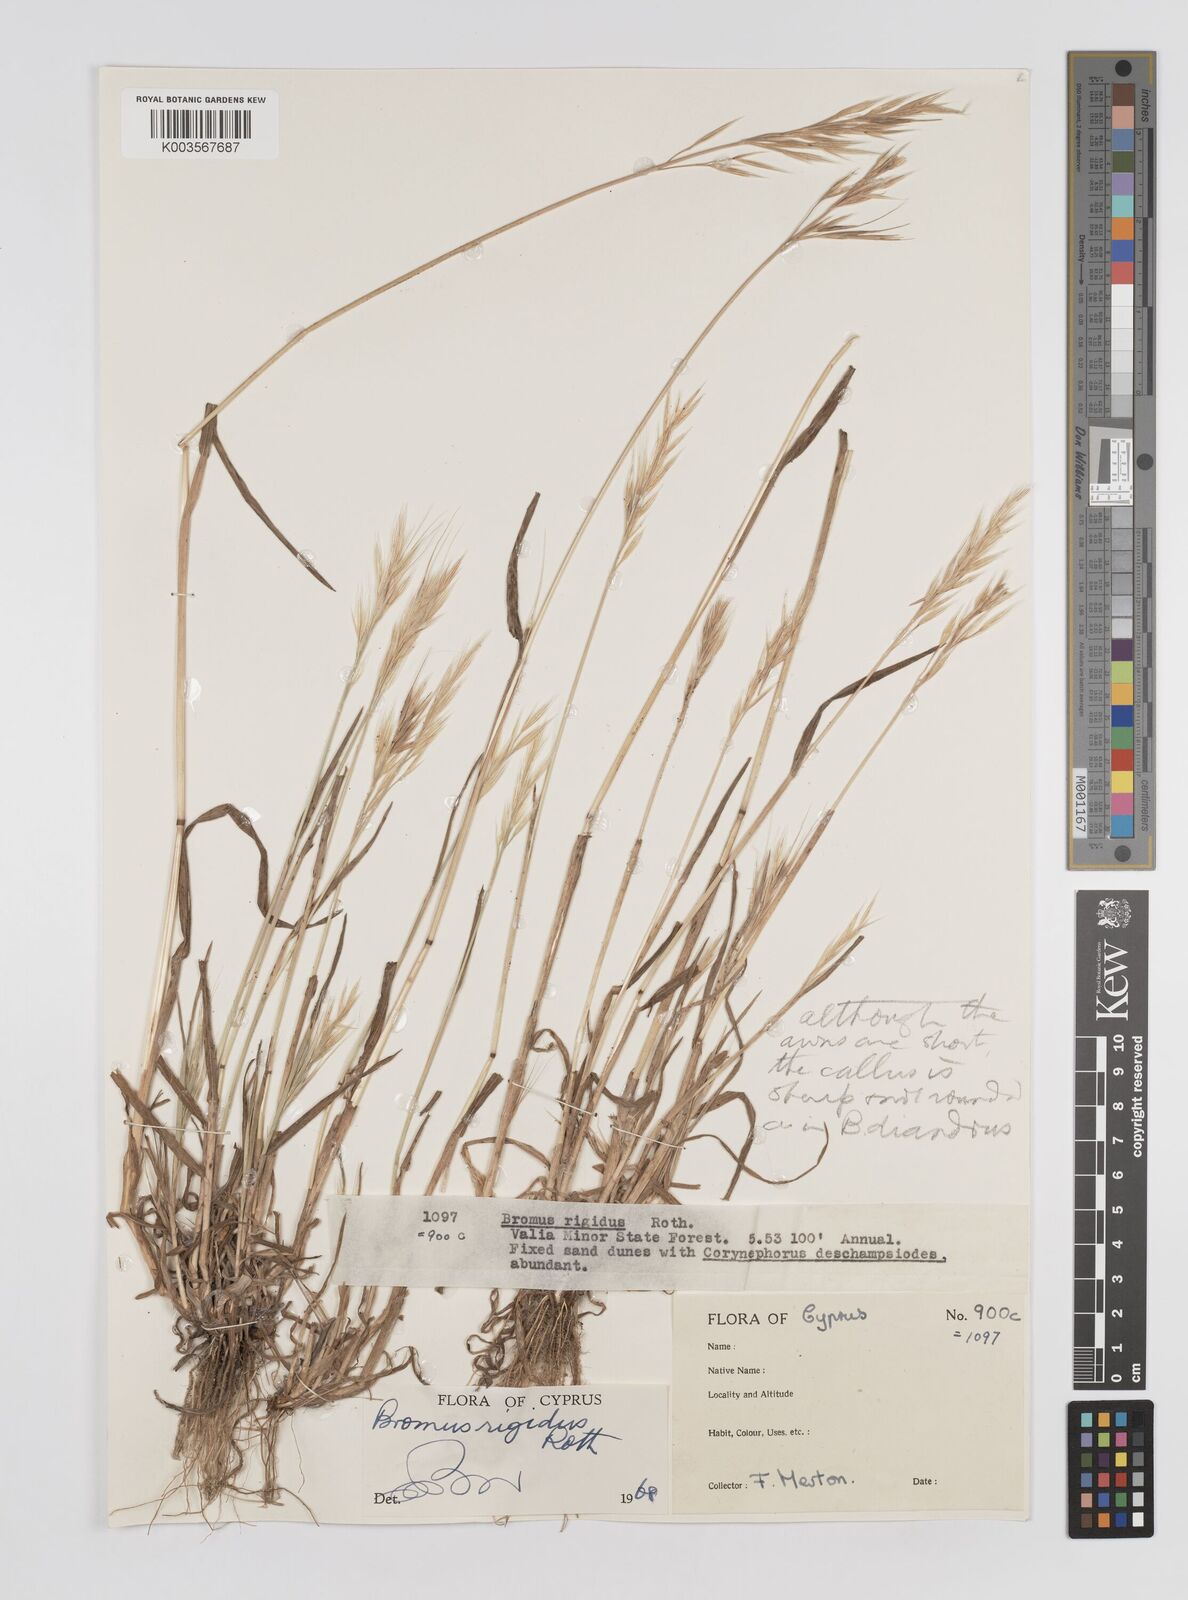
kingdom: Plantae
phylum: Tracheophyta
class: Liliopsida
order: Poales
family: Poaceae
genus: Bromus
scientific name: Bromus
